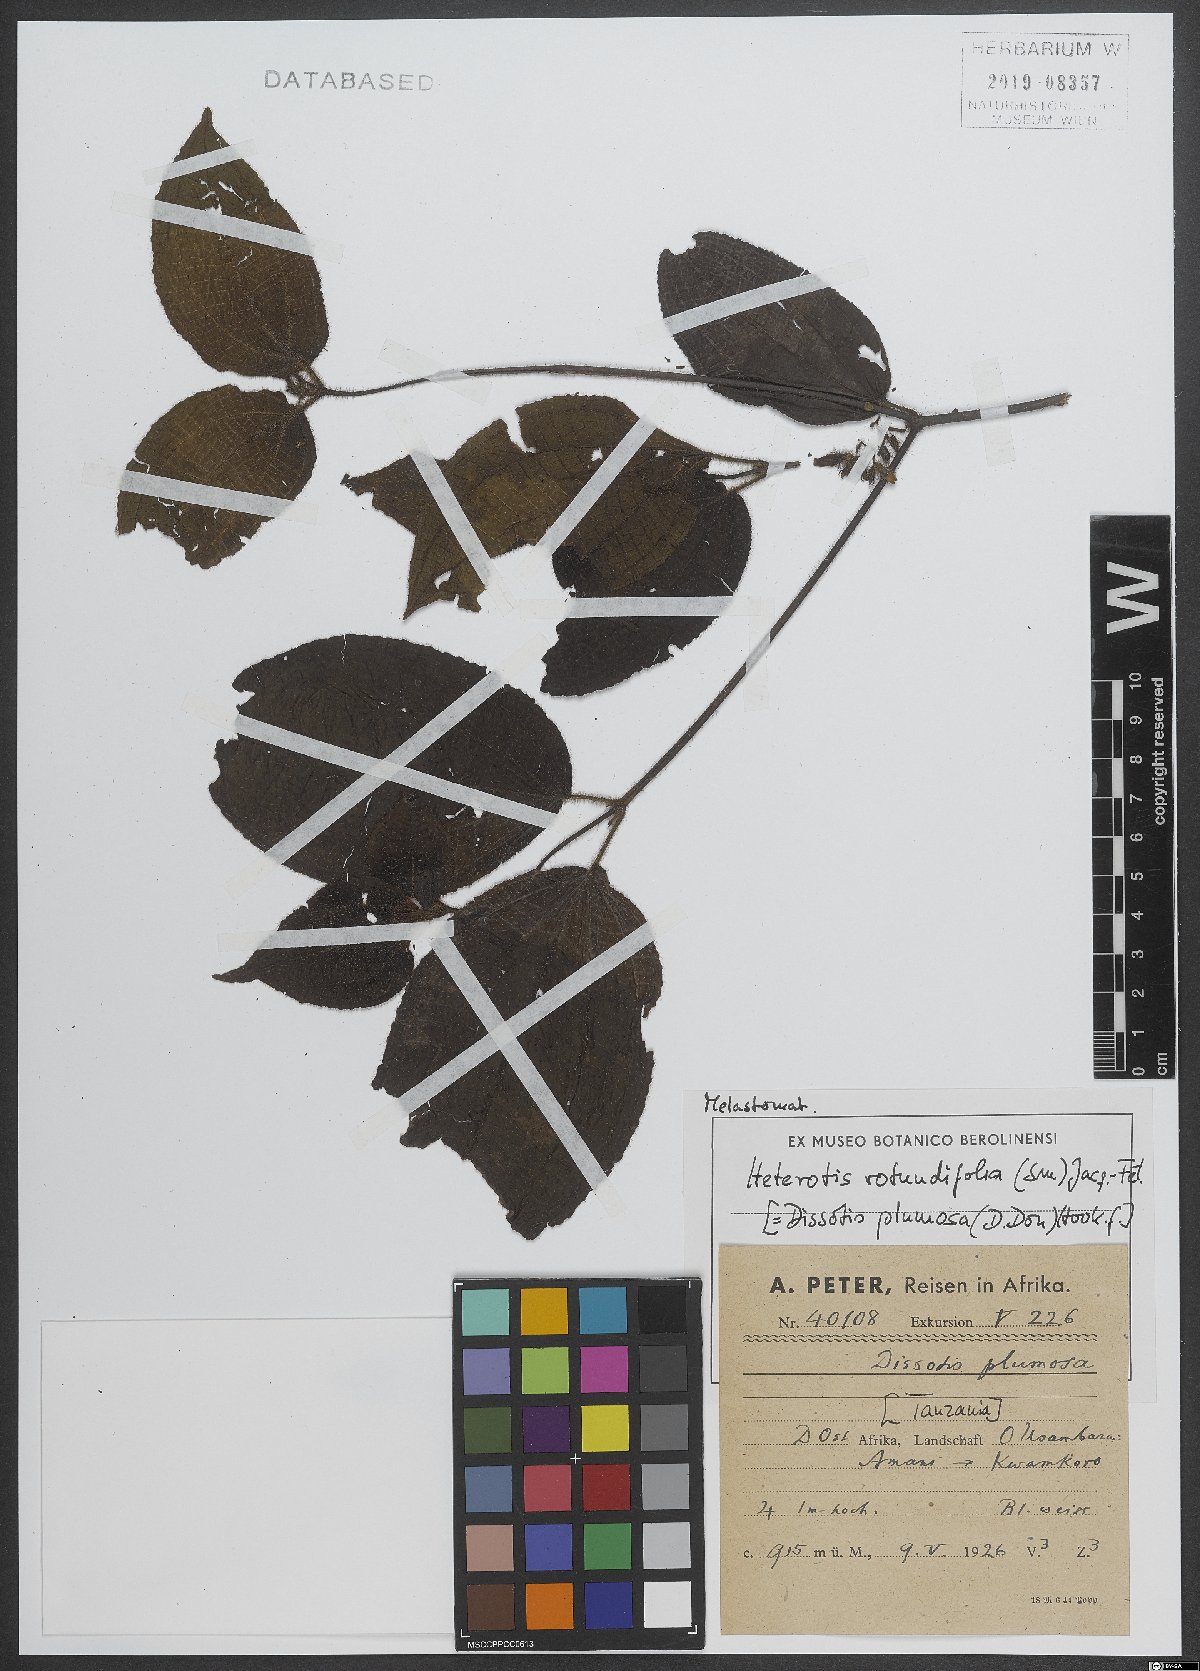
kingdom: Plantae
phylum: Tracheophyta
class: Magnoliopsida
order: Myrtales
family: Melastomataceae
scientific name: Melastomataceae
